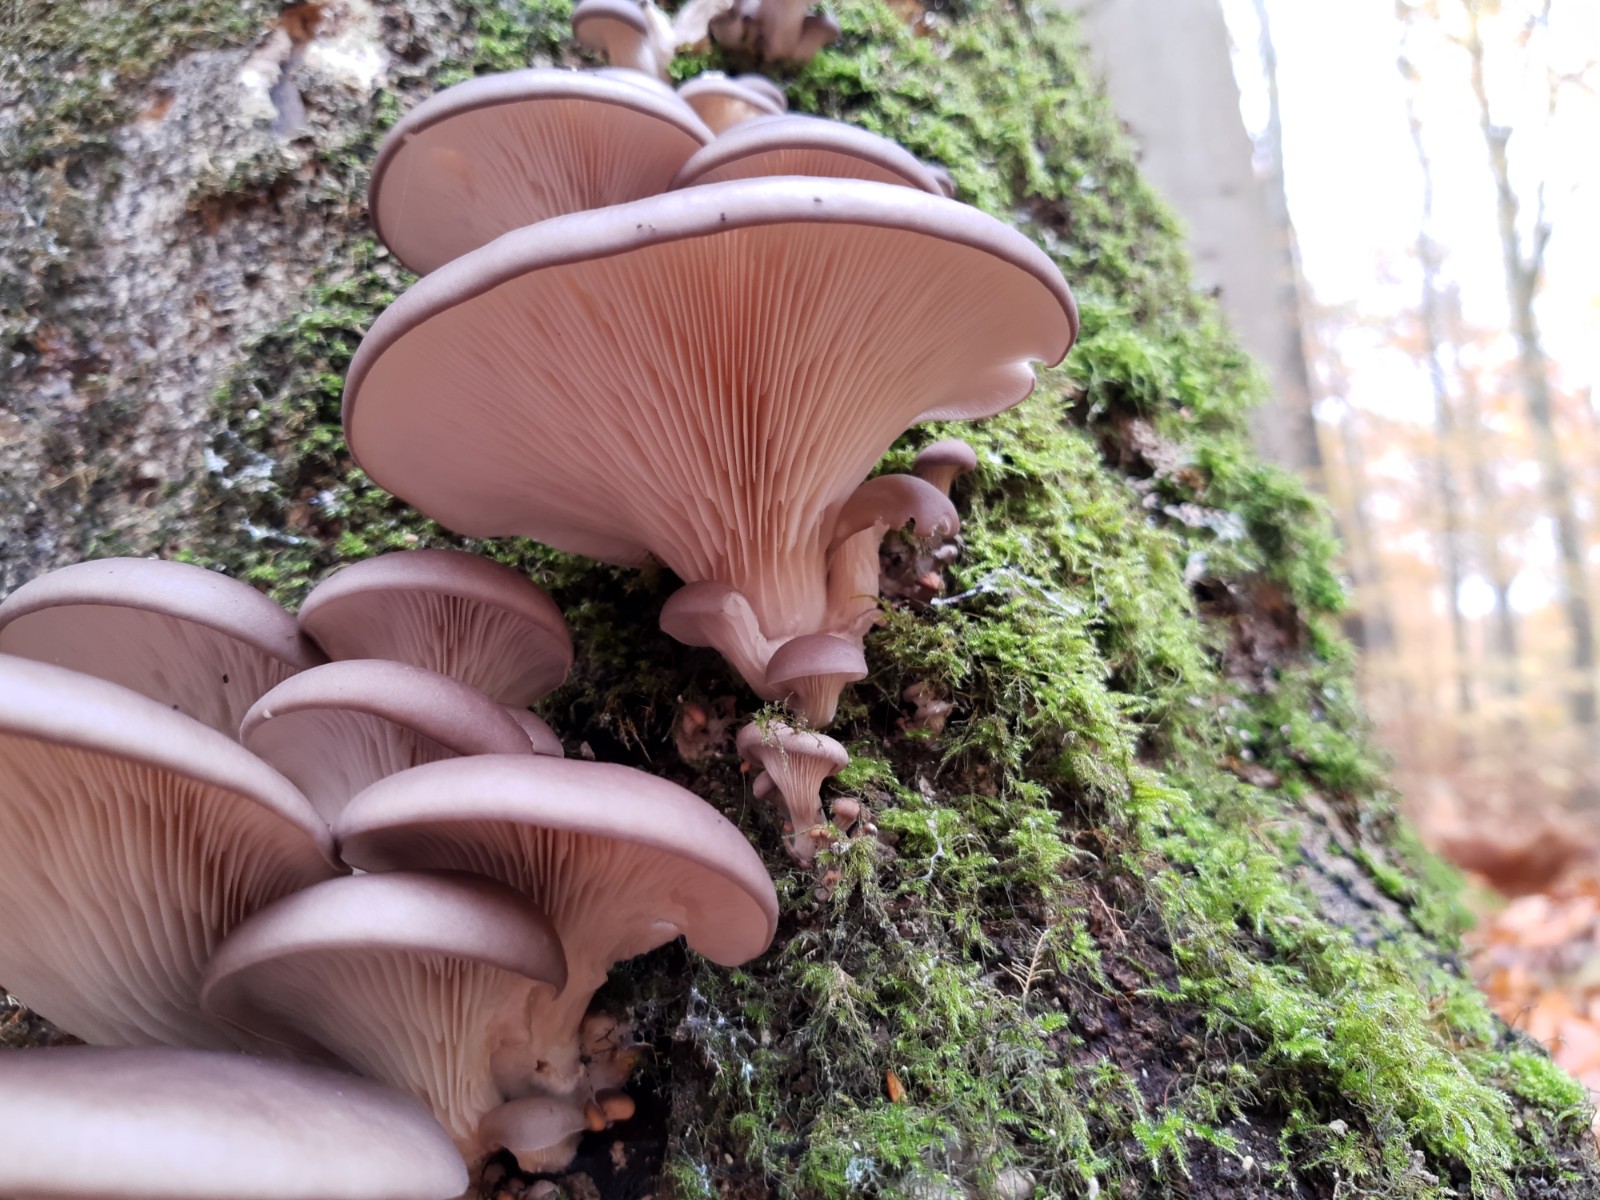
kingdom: Fungi
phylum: Basidiomycota
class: Agaricomycetes
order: Agaricales
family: Pleurotaceae
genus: Pleurotus
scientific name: Pleurotus ostreatus
